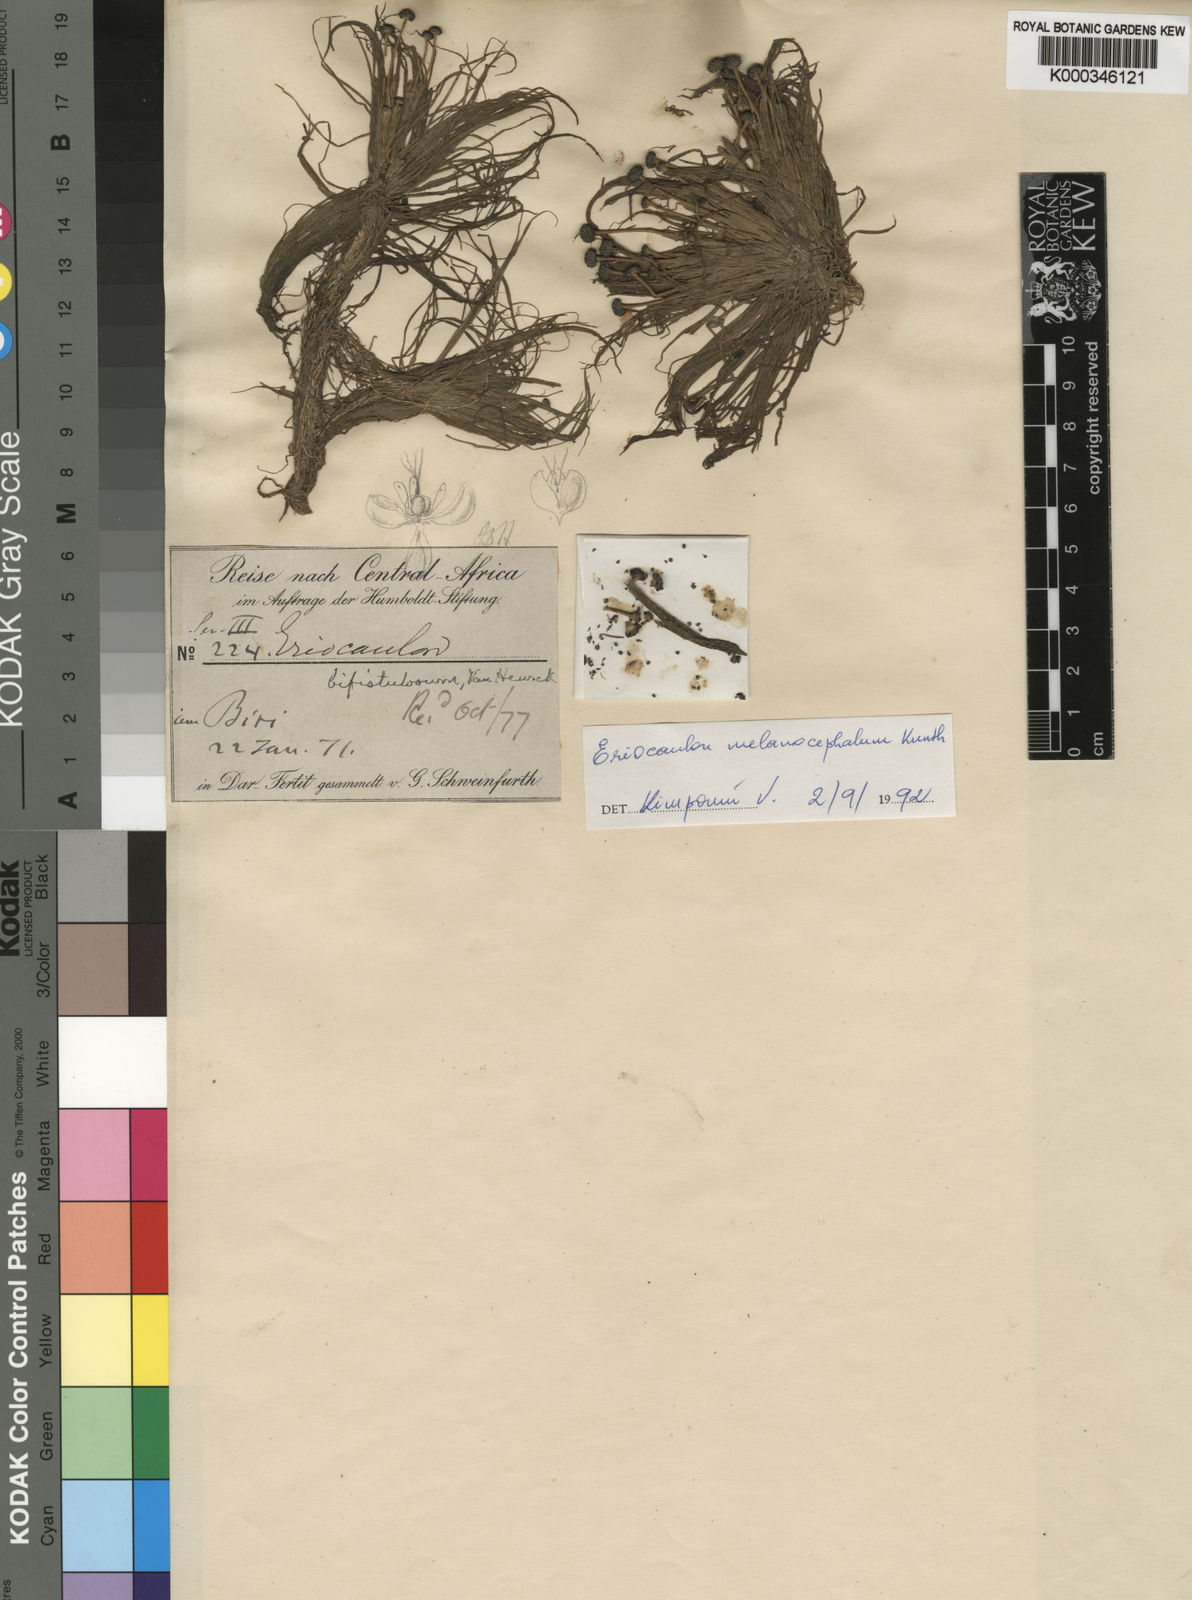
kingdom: Plantae
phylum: Tracheophyta
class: Liliopsida
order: Poales
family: Eriocaulaceae
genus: Eriocaulon
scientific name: Eriocaulon setaceum
